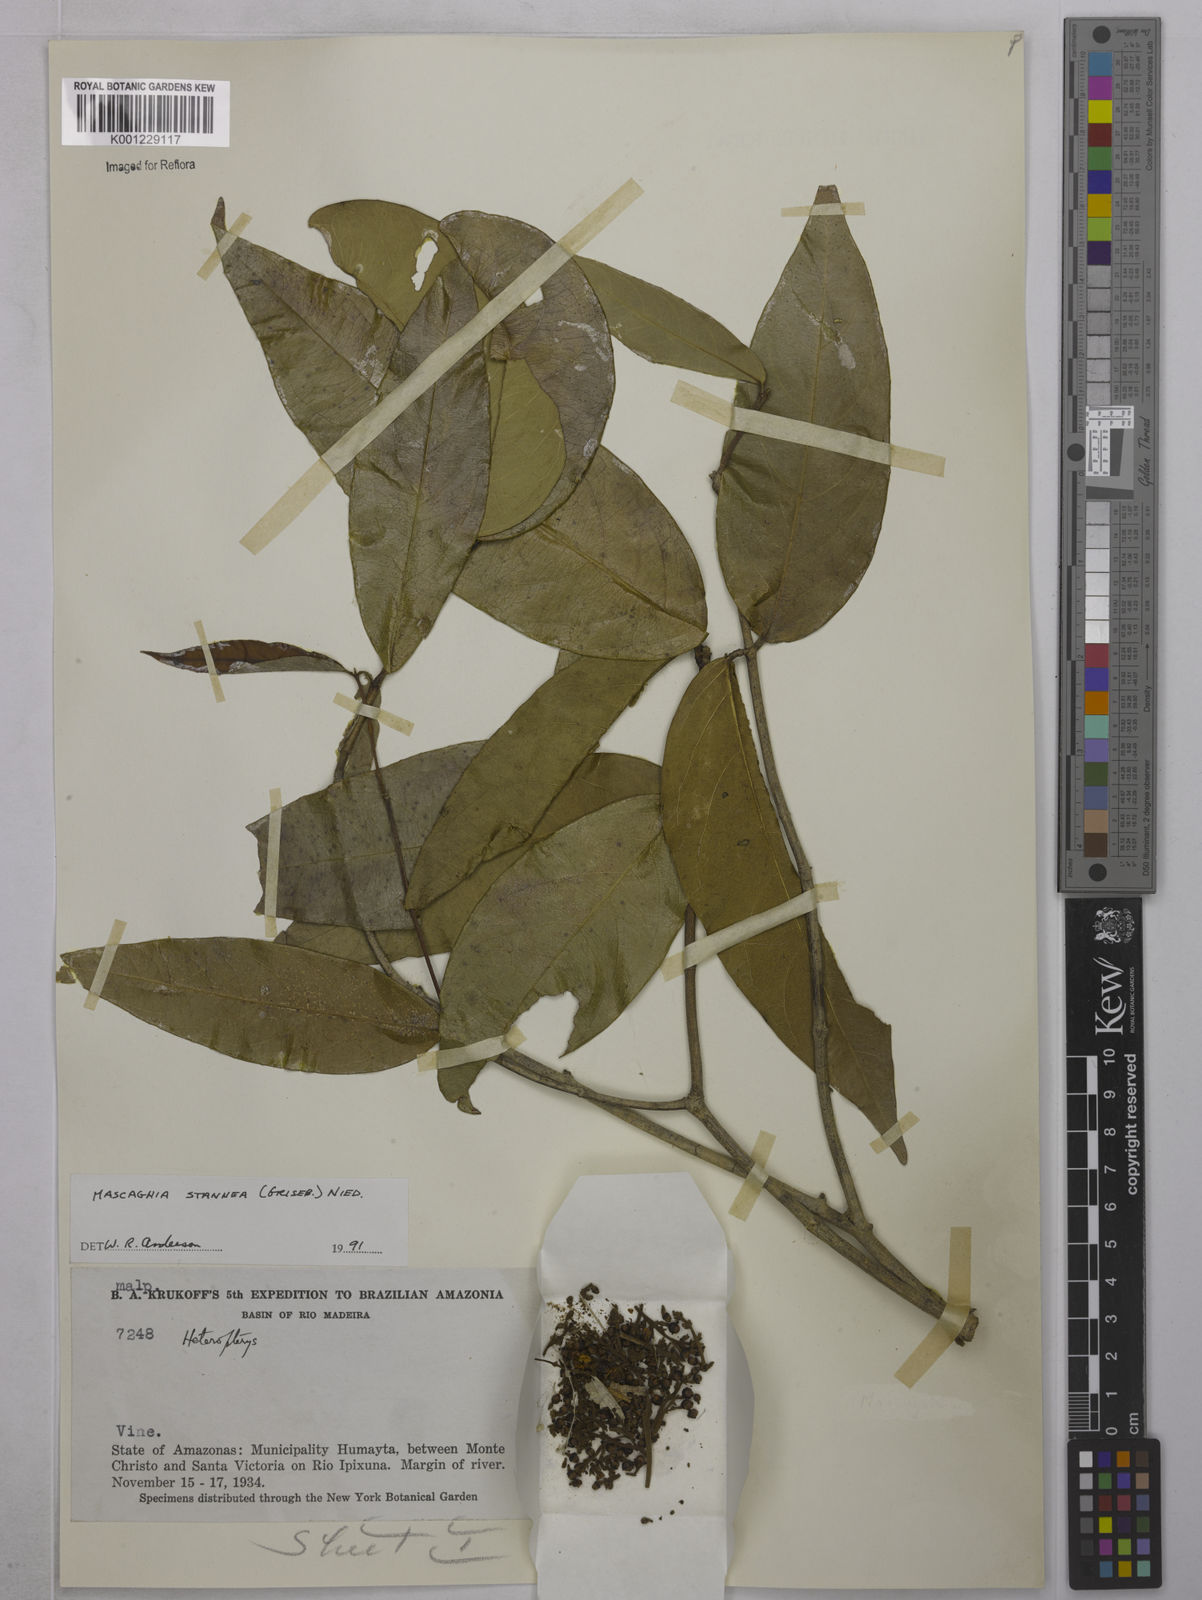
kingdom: Plantae
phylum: Tracheophyta
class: Magnoliopsida
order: Malpighiales
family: Malpighiaceae
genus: Niedenzuella
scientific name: Niedenzuella stannea
